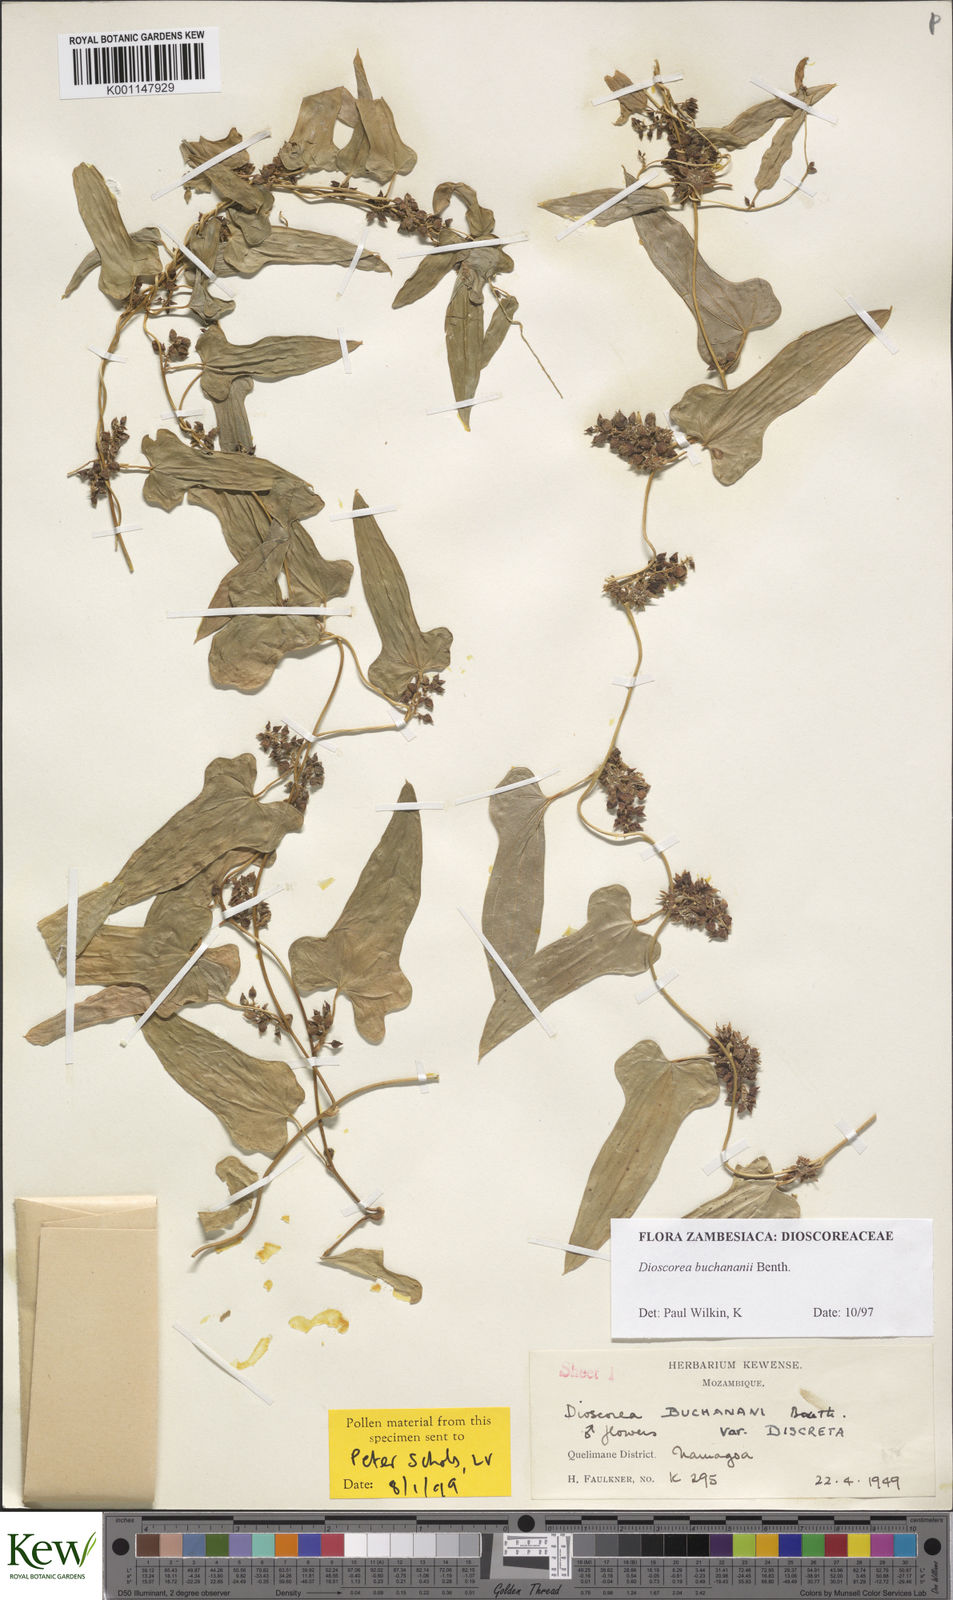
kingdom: Plantae
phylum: Tracheophyta
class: Liliopsida
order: Dioscoreales
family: Dioscoreaceae
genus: Dioscorea
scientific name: Dioscorea buchananii
